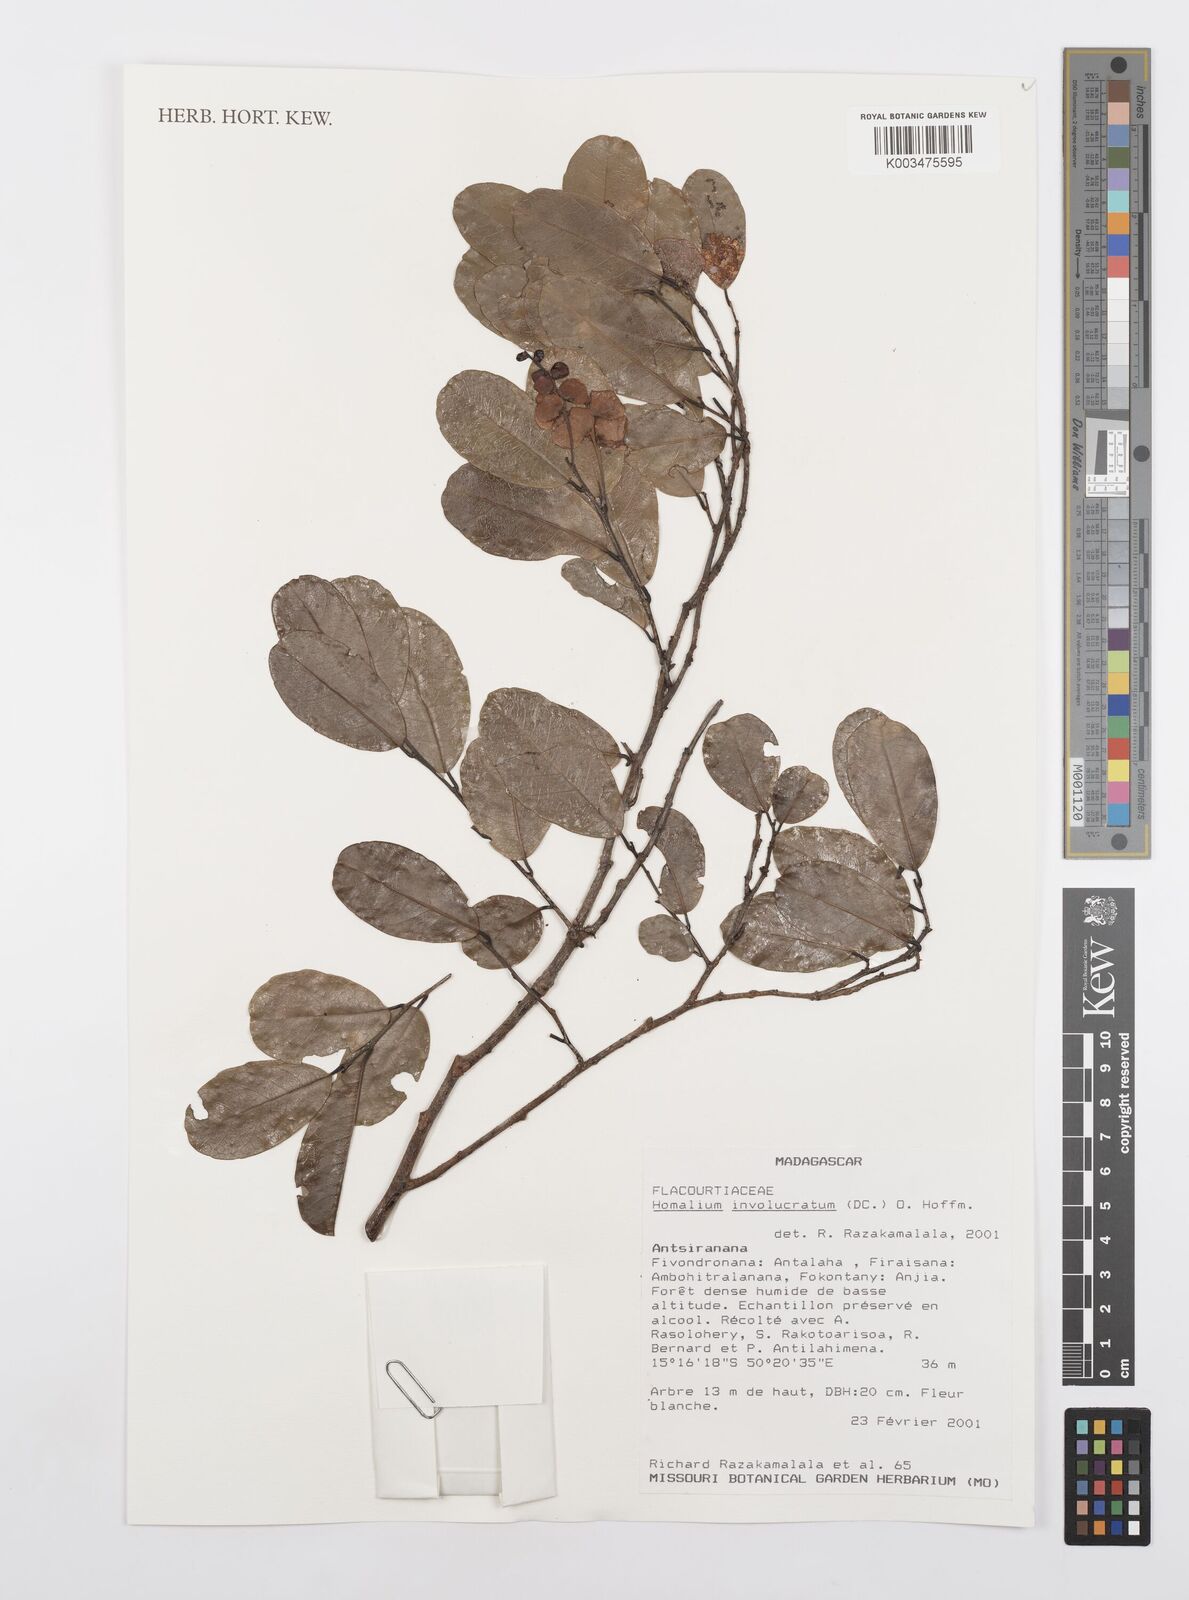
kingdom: Plantae
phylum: Tracheophyta
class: Magnoliopsida
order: Malpighiales
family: Salicaceae
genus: Homalium
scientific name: Homalium involucratum
